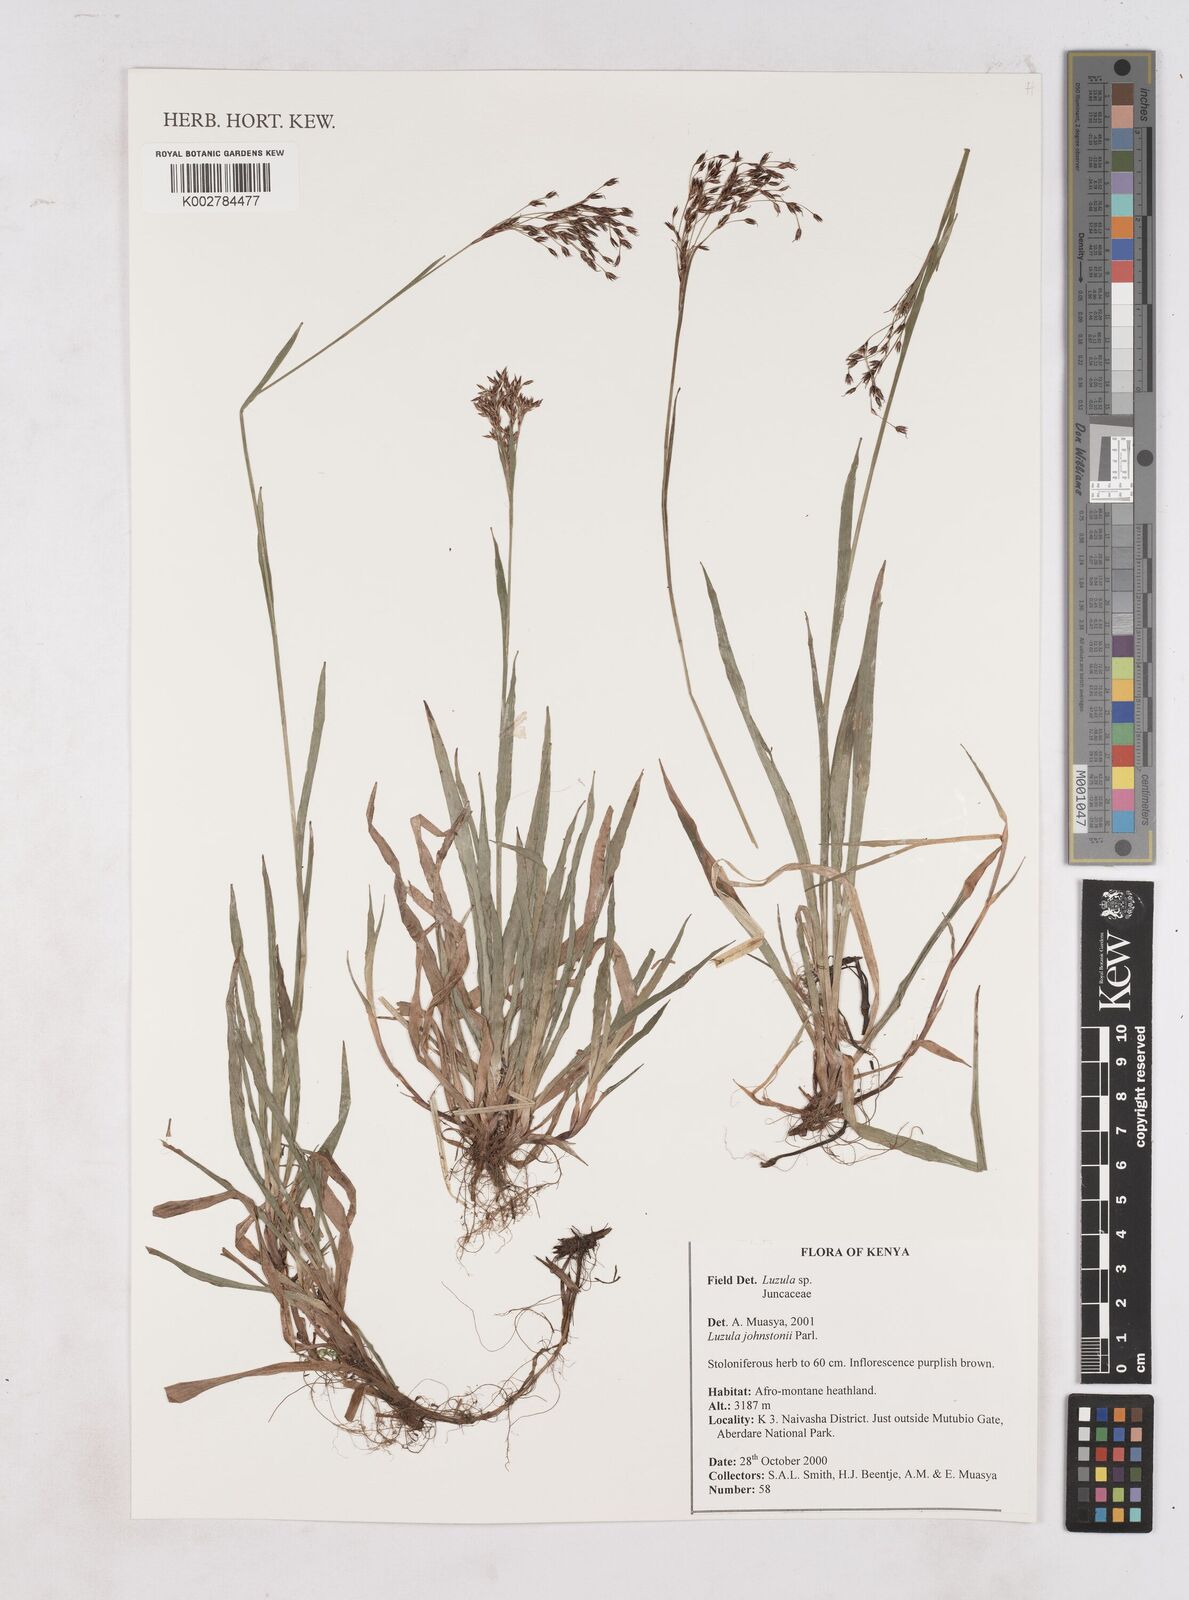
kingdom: Plantae
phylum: Tracheophyta
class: Liliopsida
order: Poales
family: Juncaceae
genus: Luzula
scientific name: Luzula johnstonii
